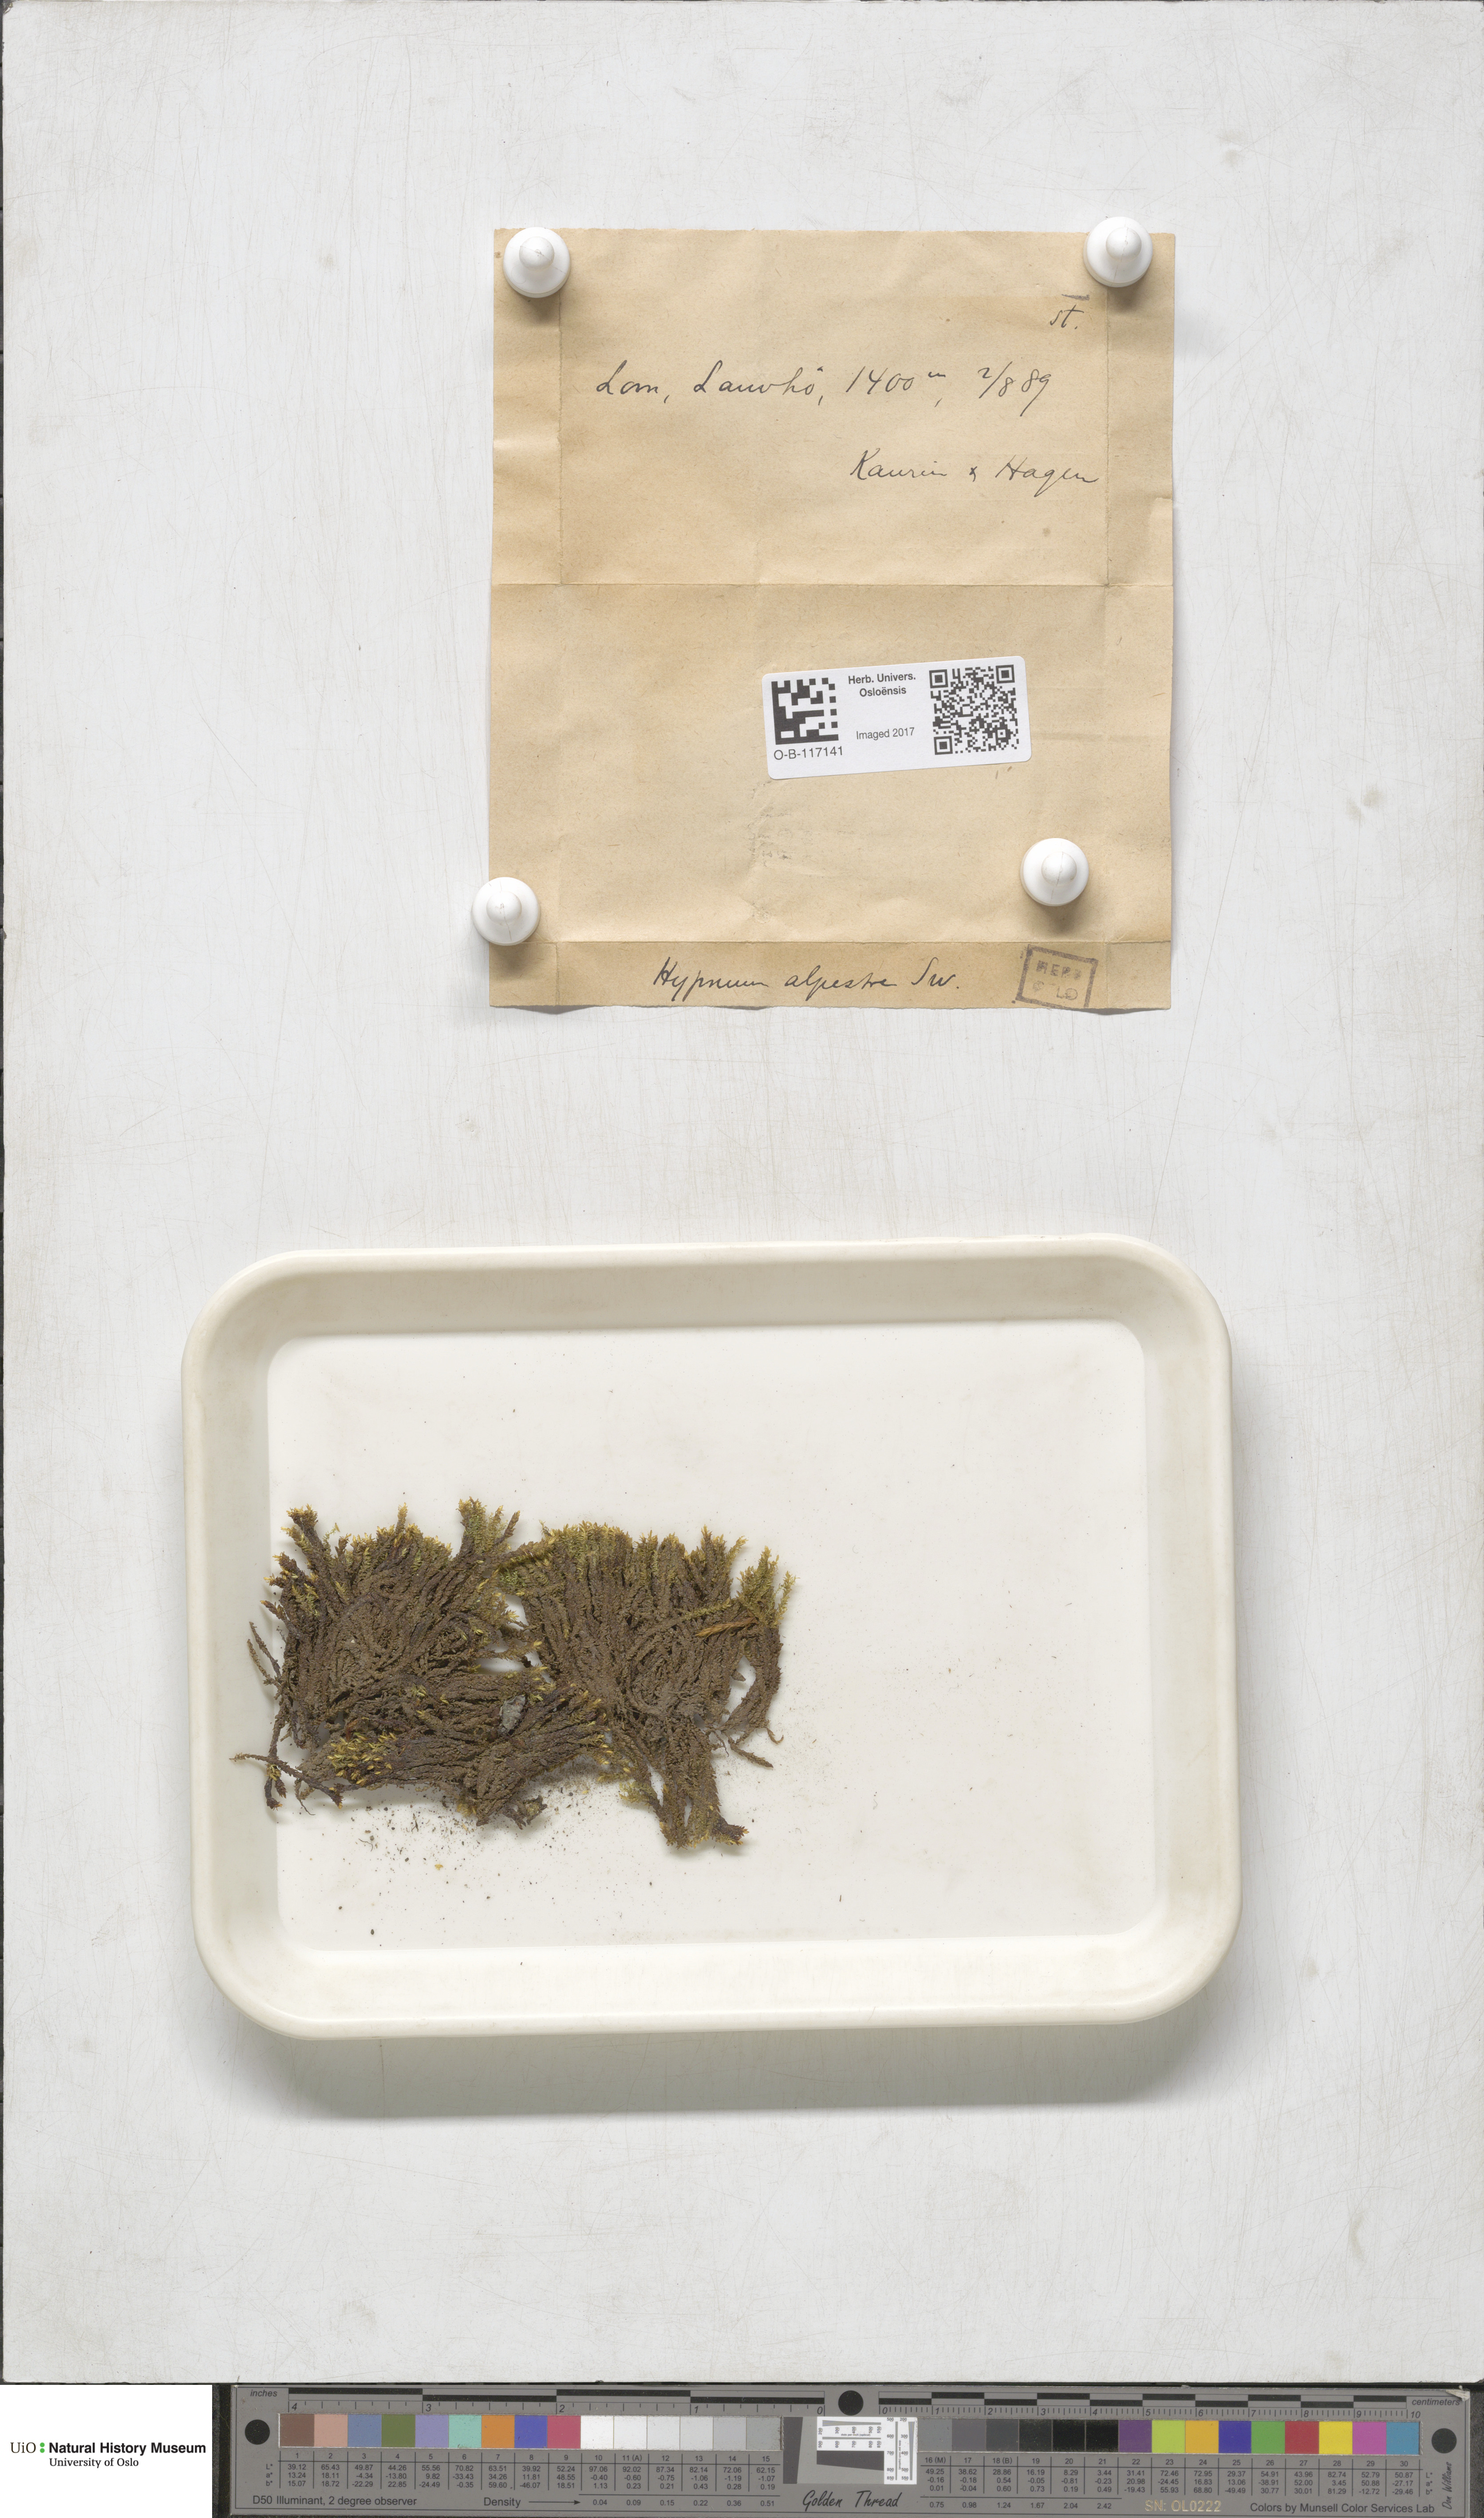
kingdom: Plantae
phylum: Bryophyta
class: Bryopsida
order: Hypnales
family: Amblystegiaceae
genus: Platyhypnum
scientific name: Platyhypnum alpestre
